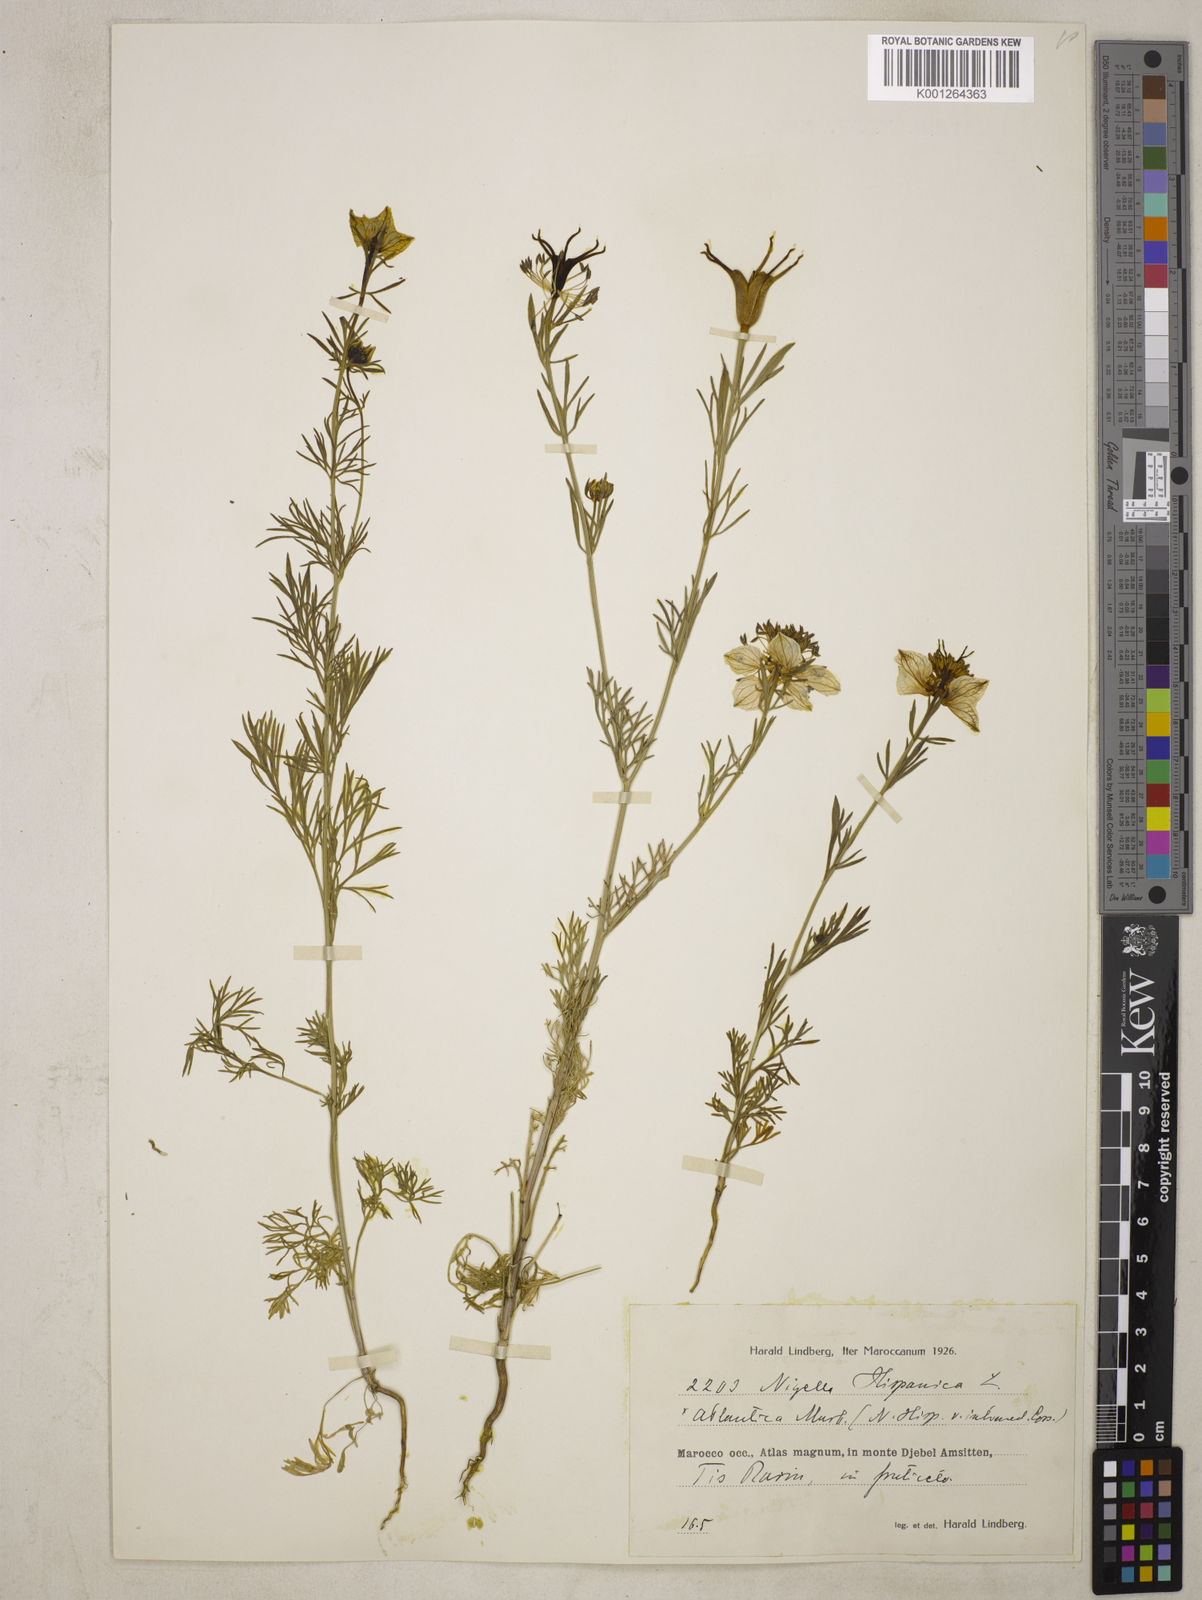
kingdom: Plantae
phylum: Tracheophyta
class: Magnoliopsida
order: Ranunculales
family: Ranunculaceae
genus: Nigella
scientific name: Nigella hispanica
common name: Fennel-flower
